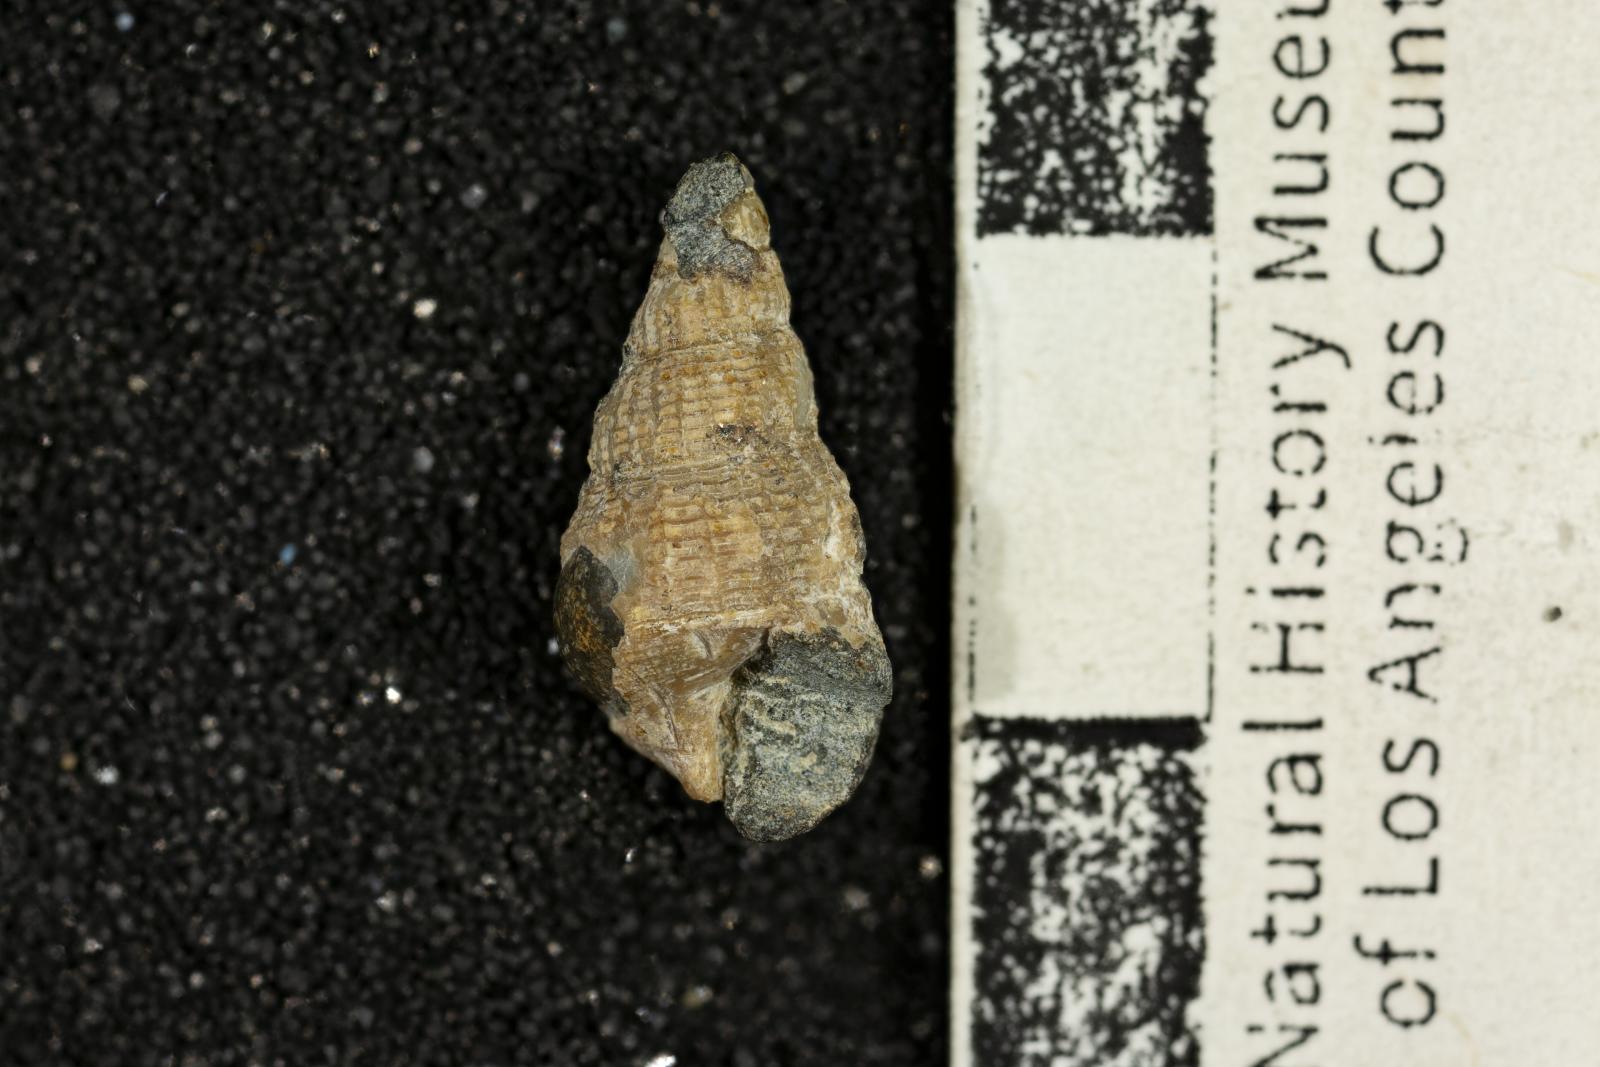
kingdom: Animalia
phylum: Mollusca
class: Gastropoda
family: Epitoniidae
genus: Acirsa
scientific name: Acirsa Ceratia nexilia
